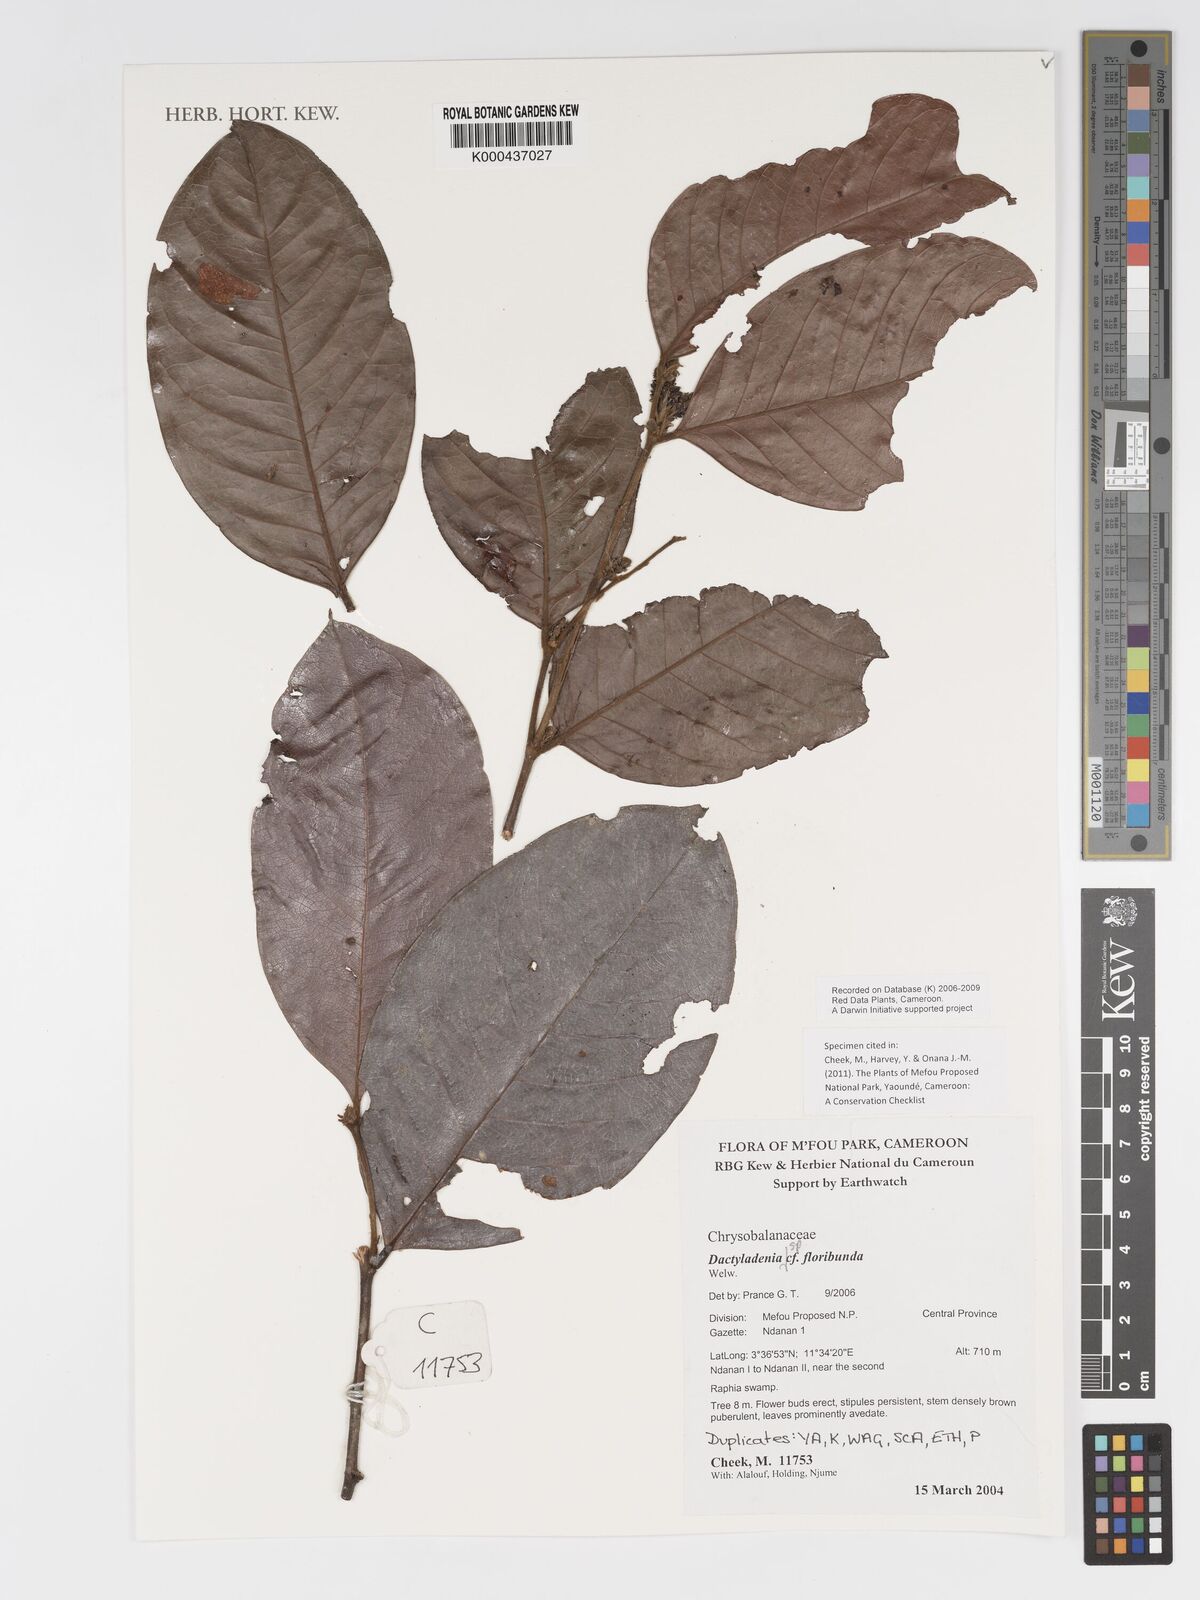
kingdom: Plantae
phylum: Tracheophyta
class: Magnoliopsida
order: Malpighiales
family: Chrysobalanaceae
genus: Dactyladenia
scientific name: Dactyladenia
